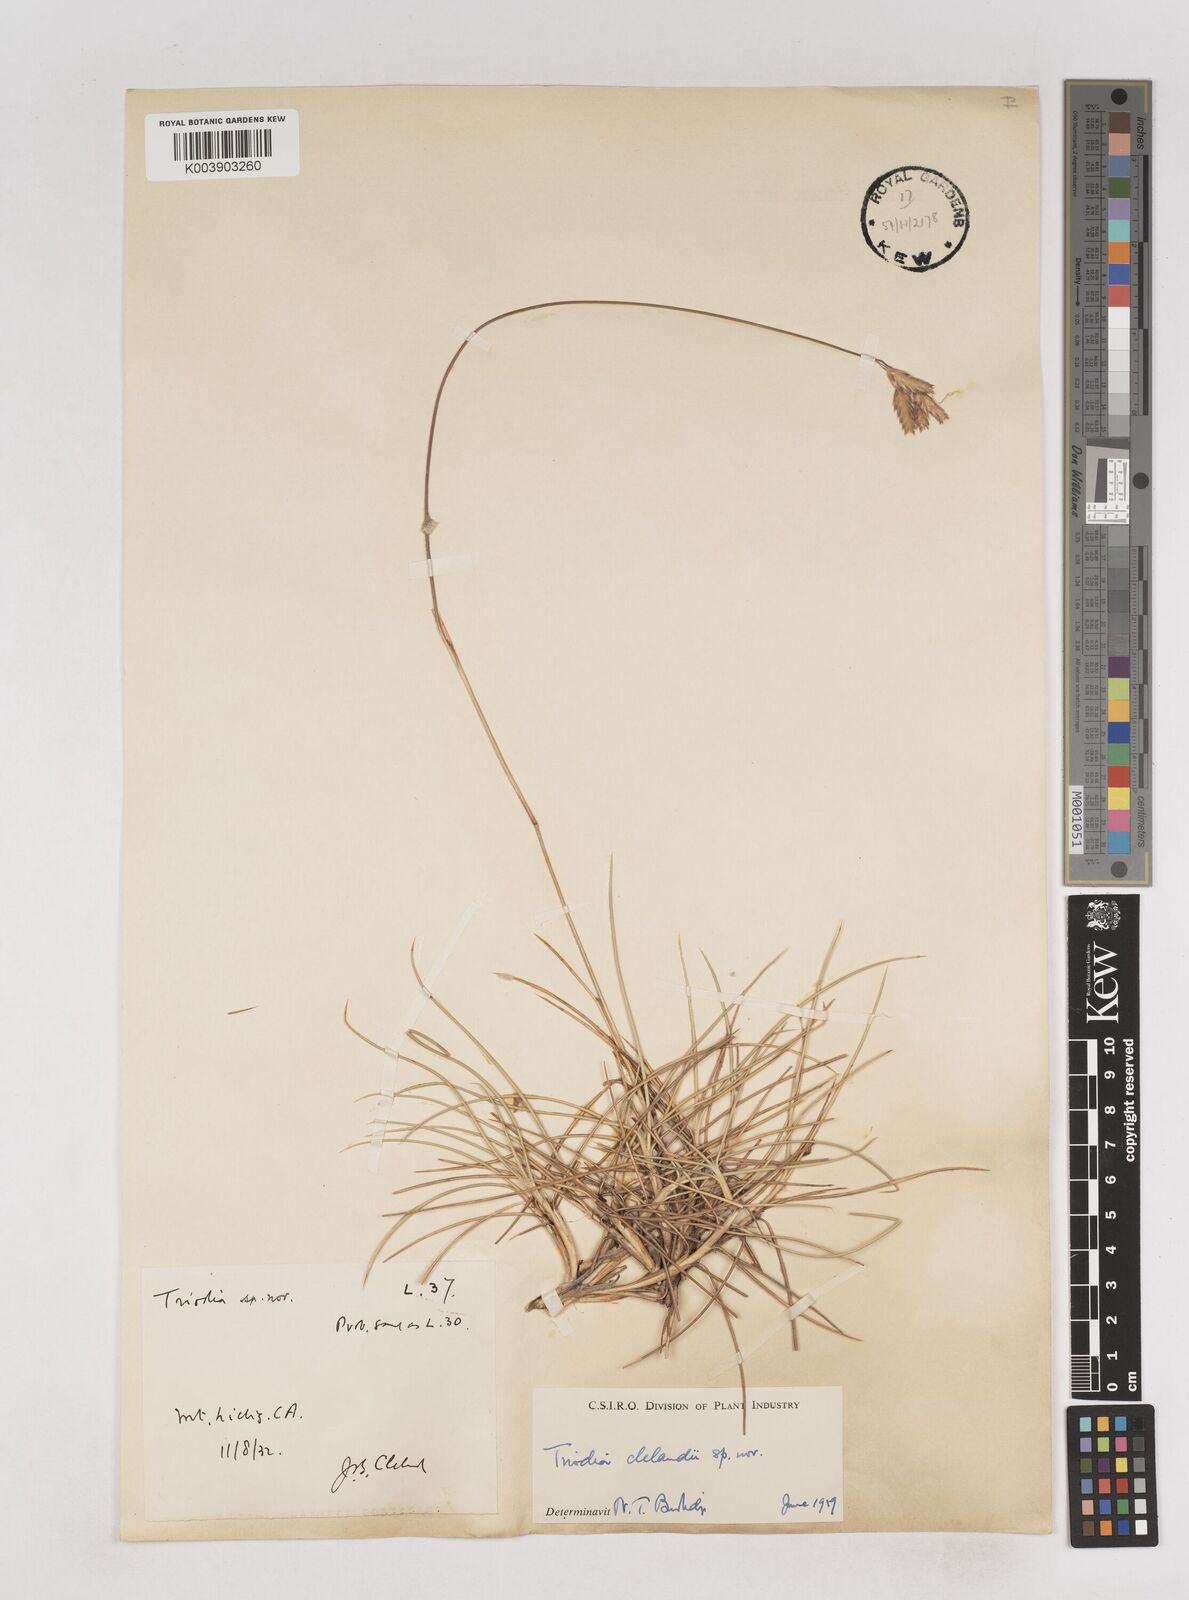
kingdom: Plantae
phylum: Tracheophyta
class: Liliopsida
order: Poales
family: Poaceae
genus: Triodia
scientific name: Triodia brizoides
